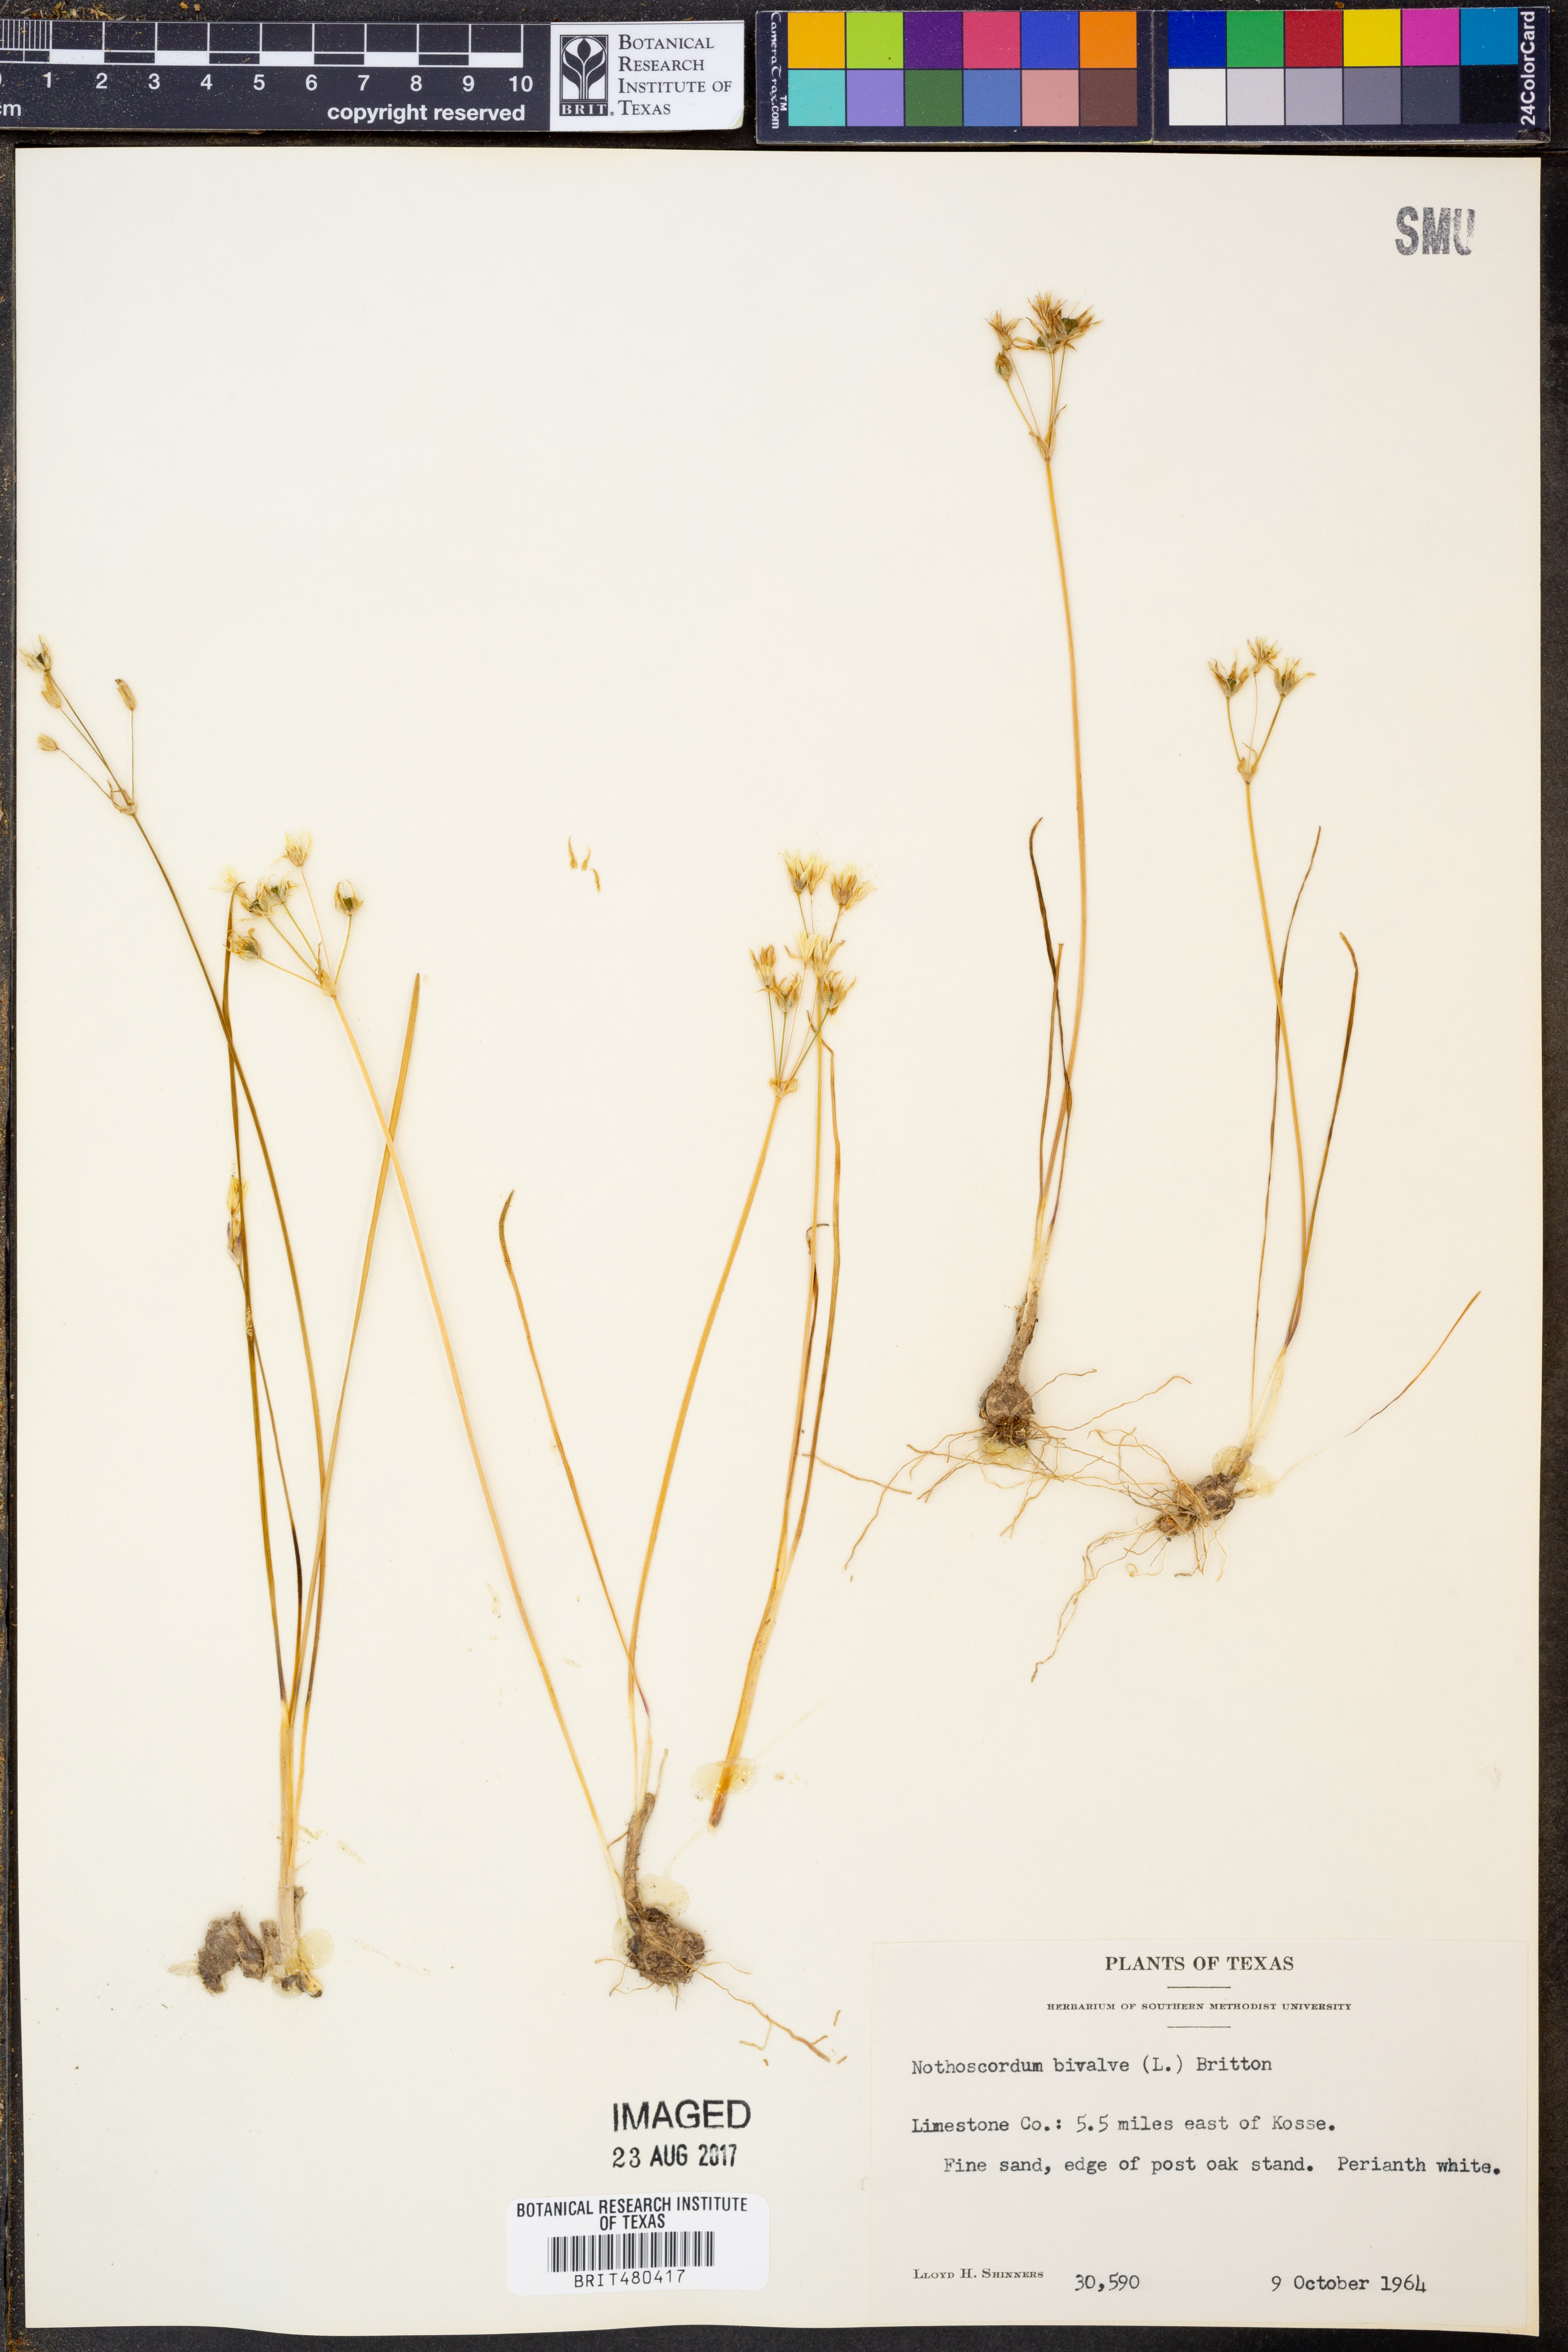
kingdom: Plantae
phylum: Tracheophyta
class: Liliopsida
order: Asparagales
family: Amaryllidaceae
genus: Nothoscordum
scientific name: Nothoscordum bivalve
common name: Crow-poison
